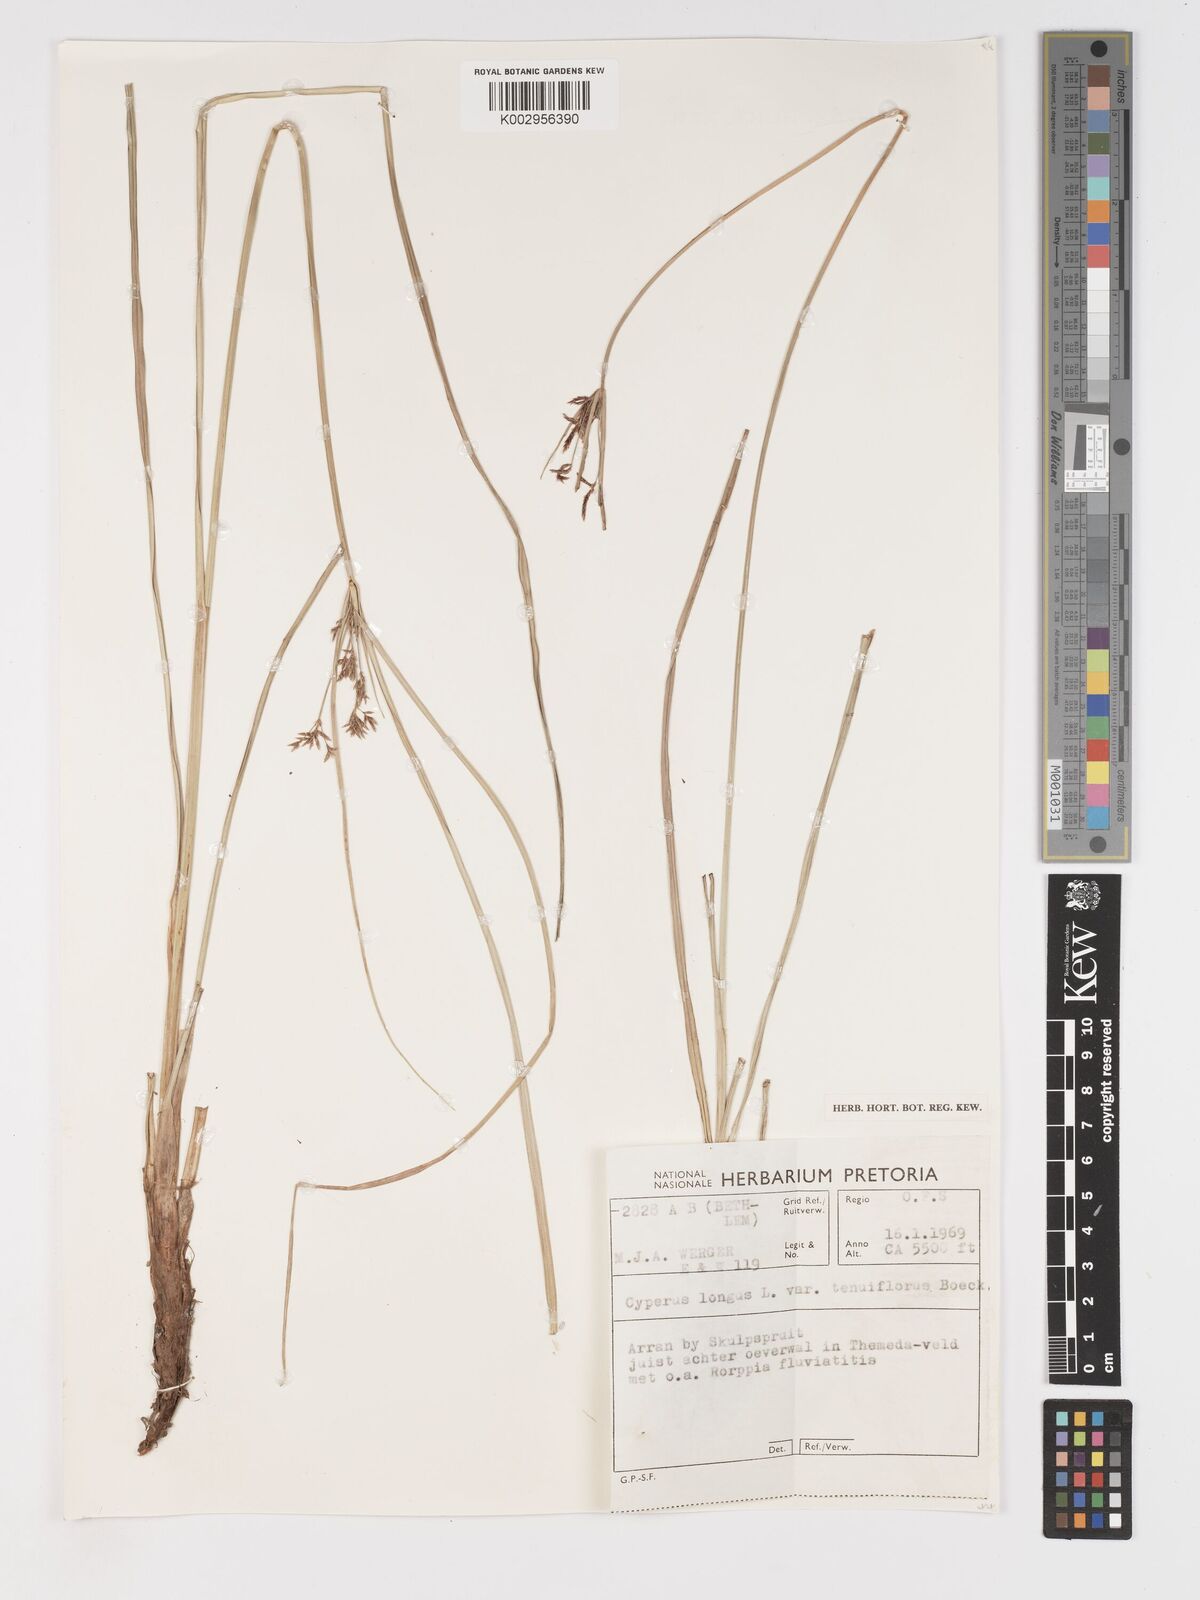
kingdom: Plantae
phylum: Tracheophyta
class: Liliopsida
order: Poales
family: Cyperaceae
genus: Cyperus
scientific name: Cyperus longus
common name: Galingale
